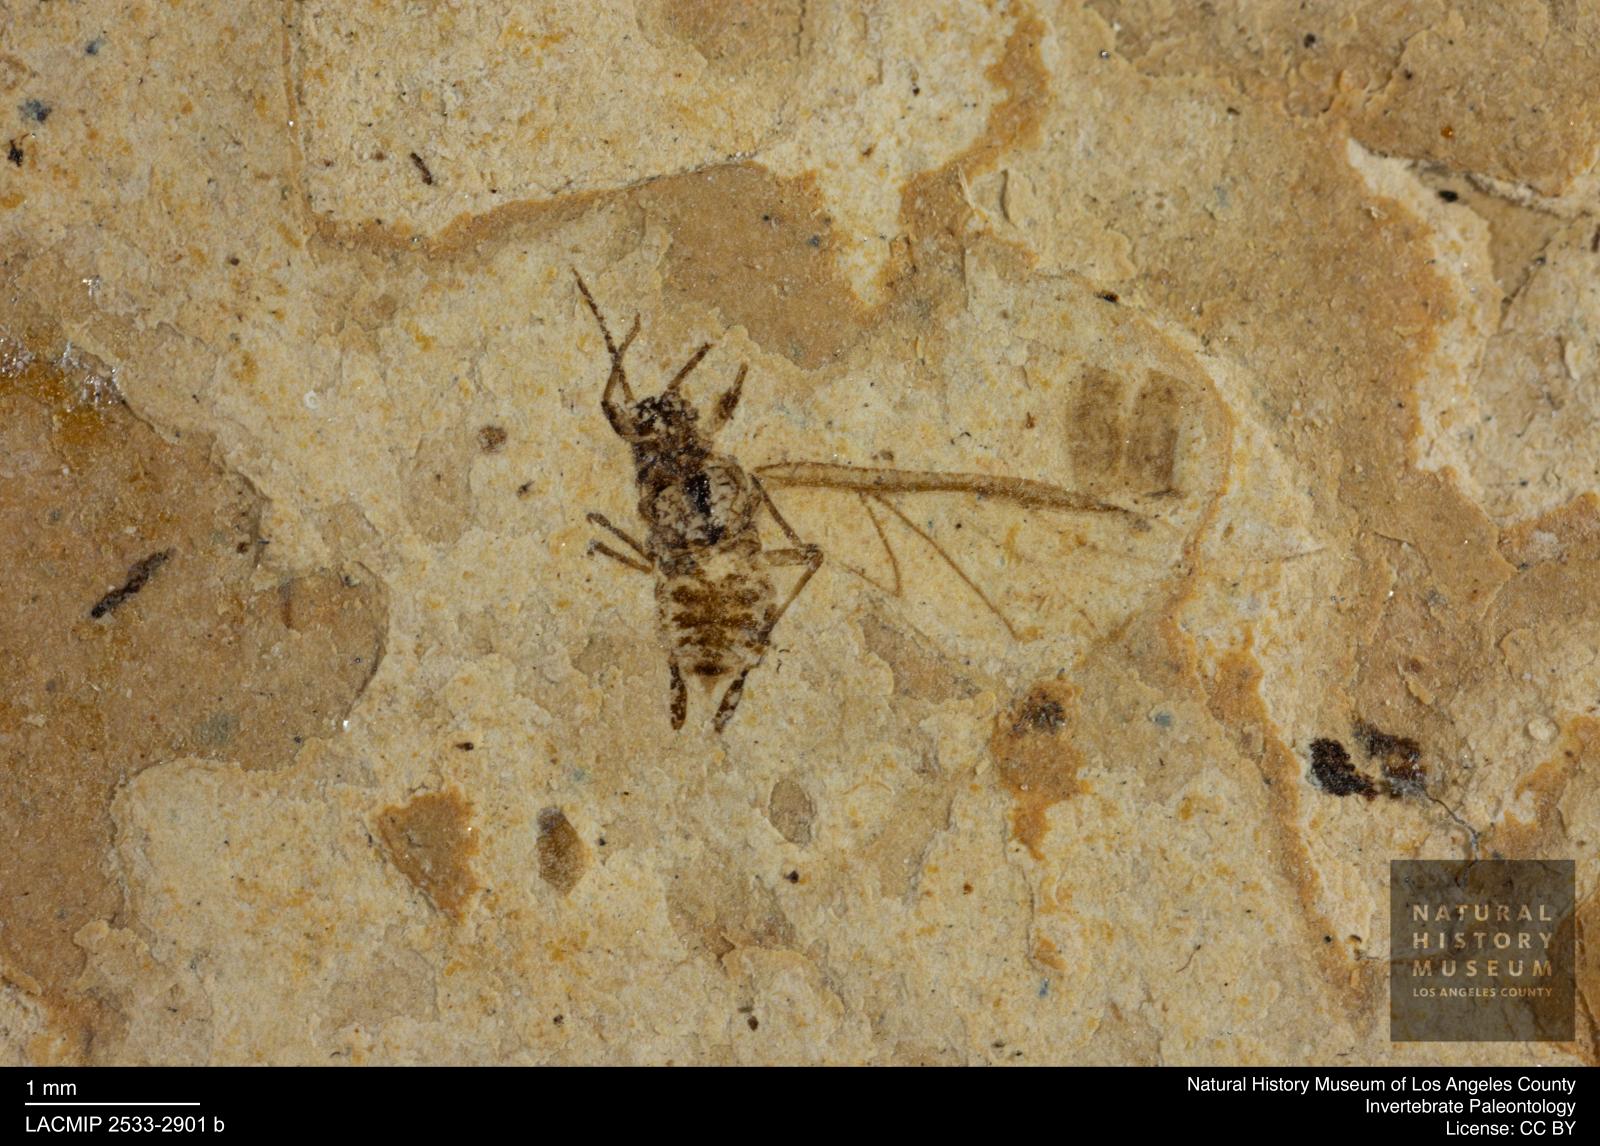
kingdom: Animalia
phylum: Arthropoda
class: Insecta
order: Hemiptera
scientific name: Hemiptera
